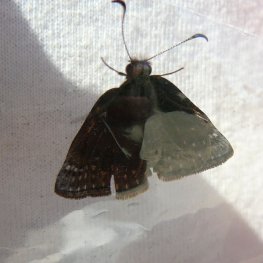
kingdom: Animalia
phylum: Arthropoda
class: Insecta
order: Lepidoptera
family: Hesperiidae
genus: Erynnis
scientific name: Erynnis icelus
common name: Dreamy Duskywing
